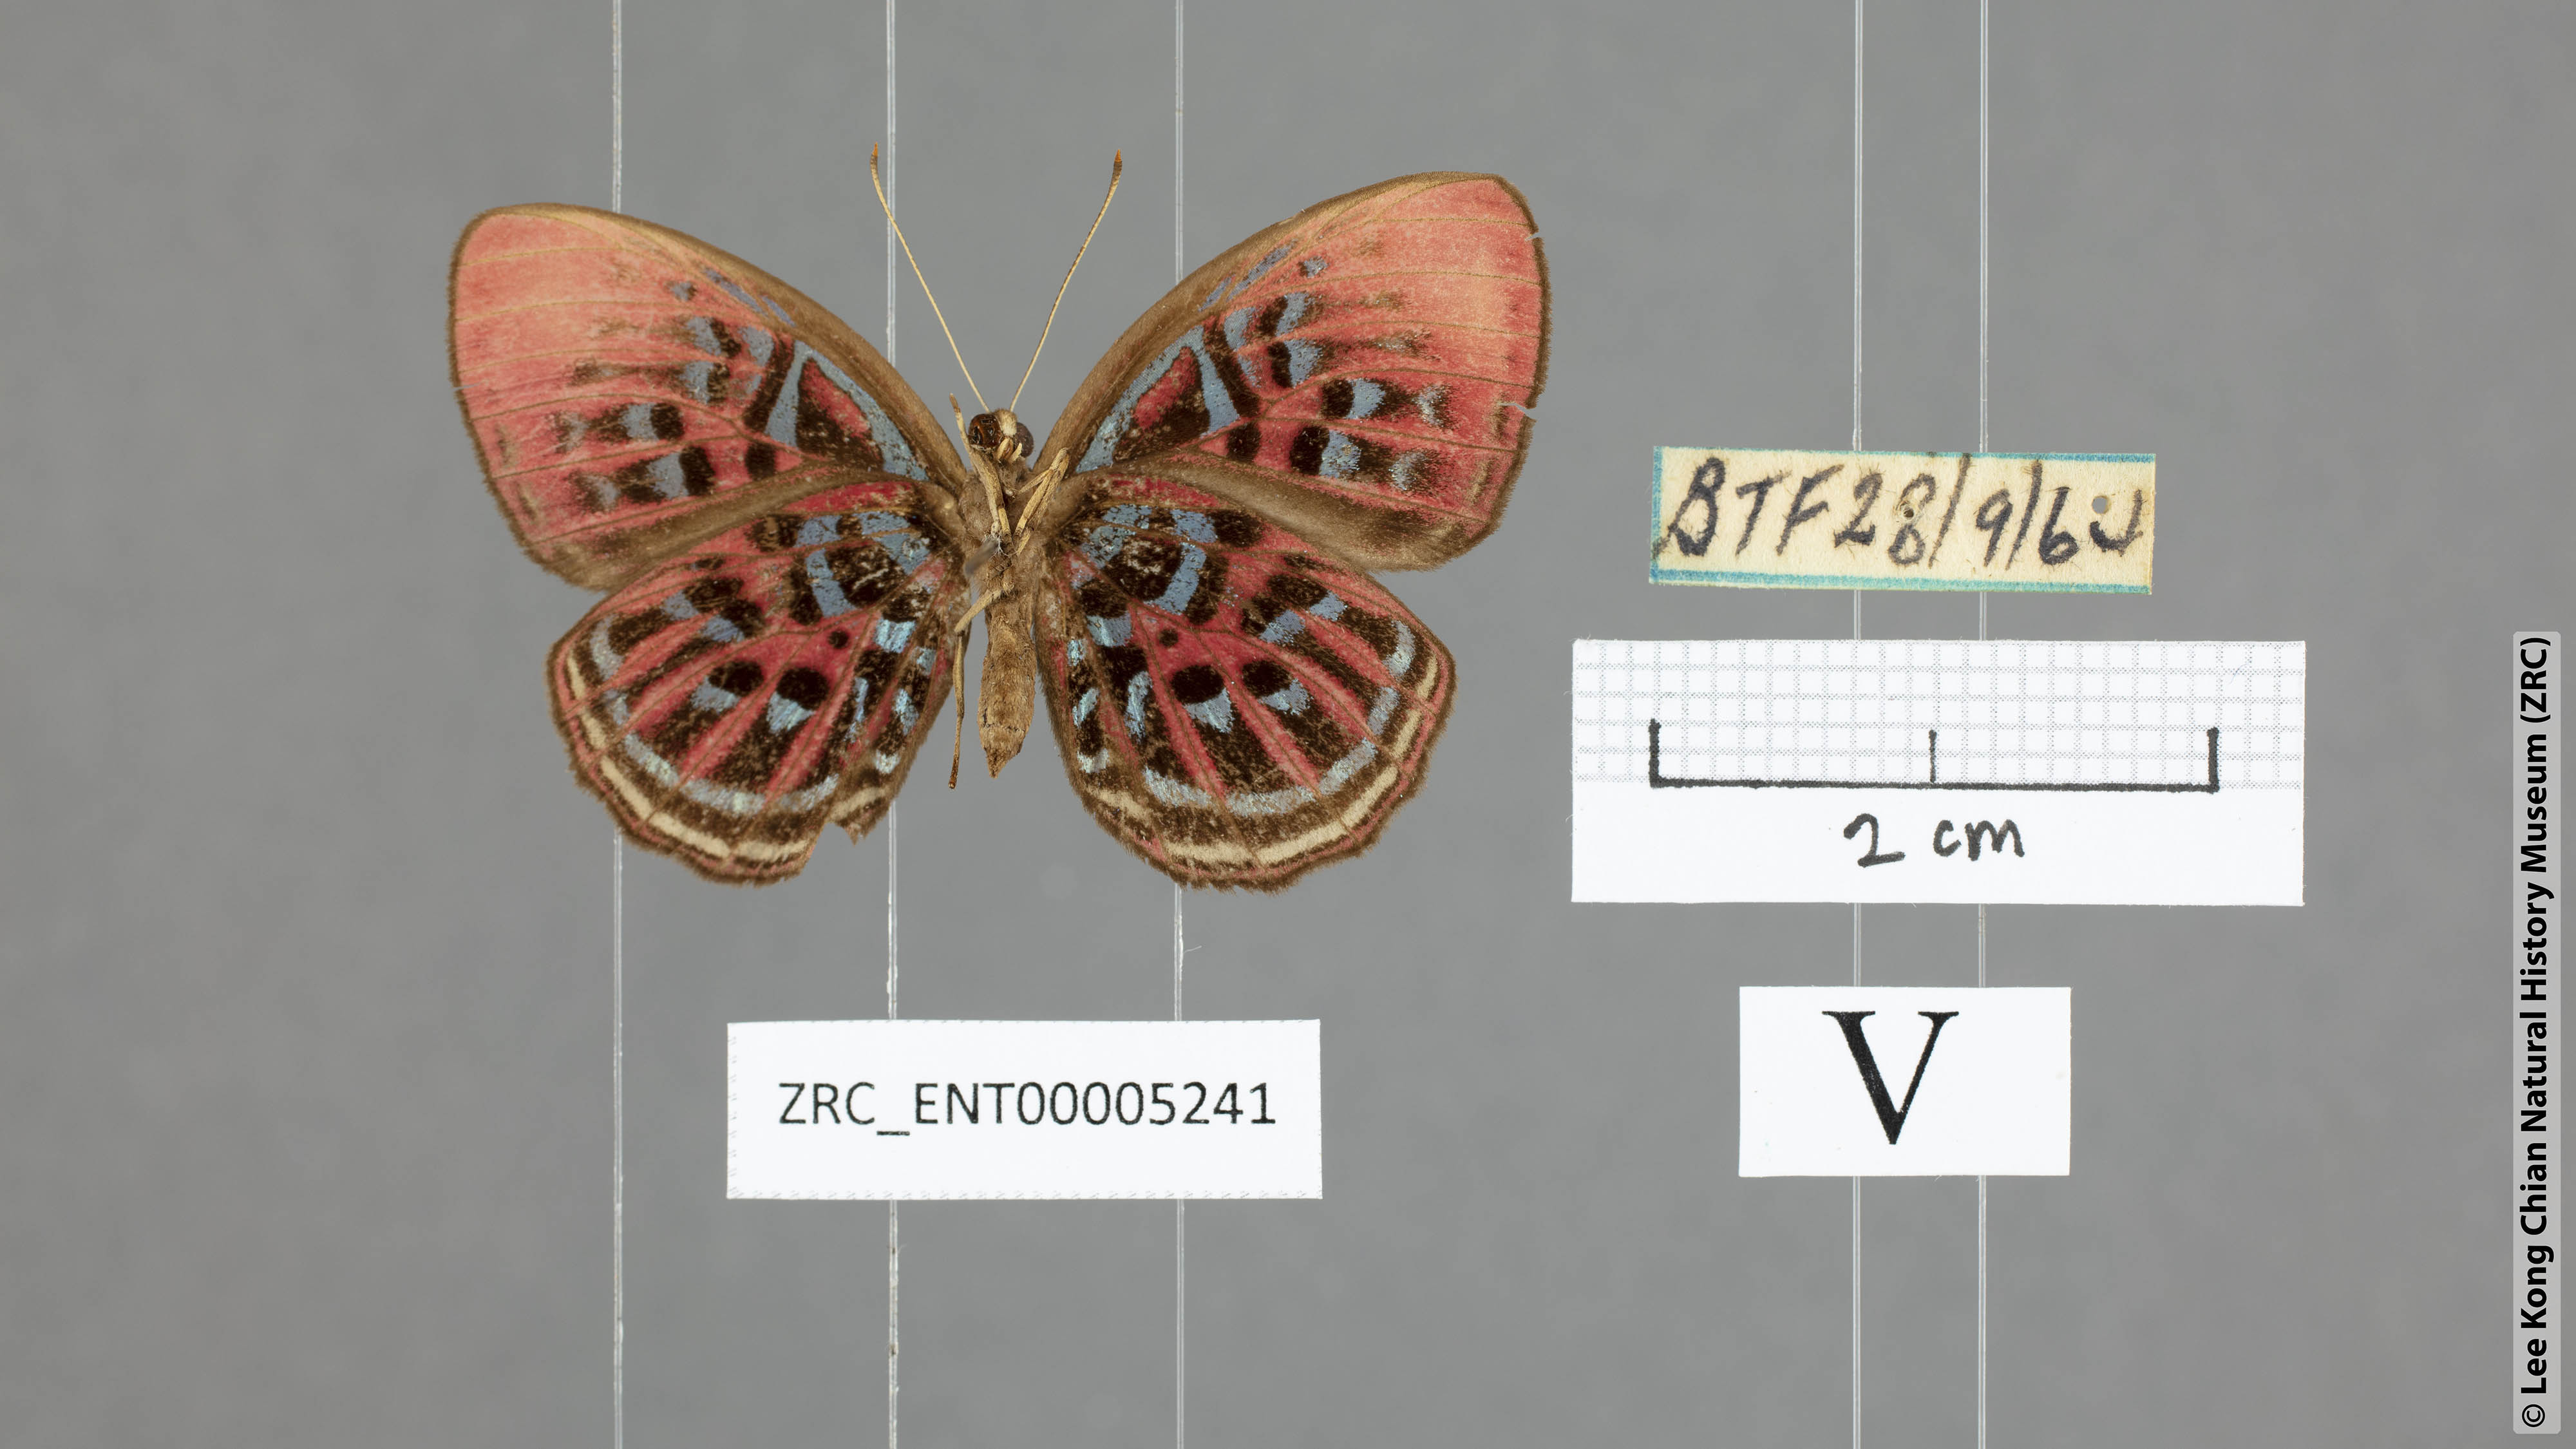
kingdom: Animalia
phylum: Arthropoda
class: Insecta
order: Lepidoptera
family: Riodinidae
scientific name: Riodinidae
